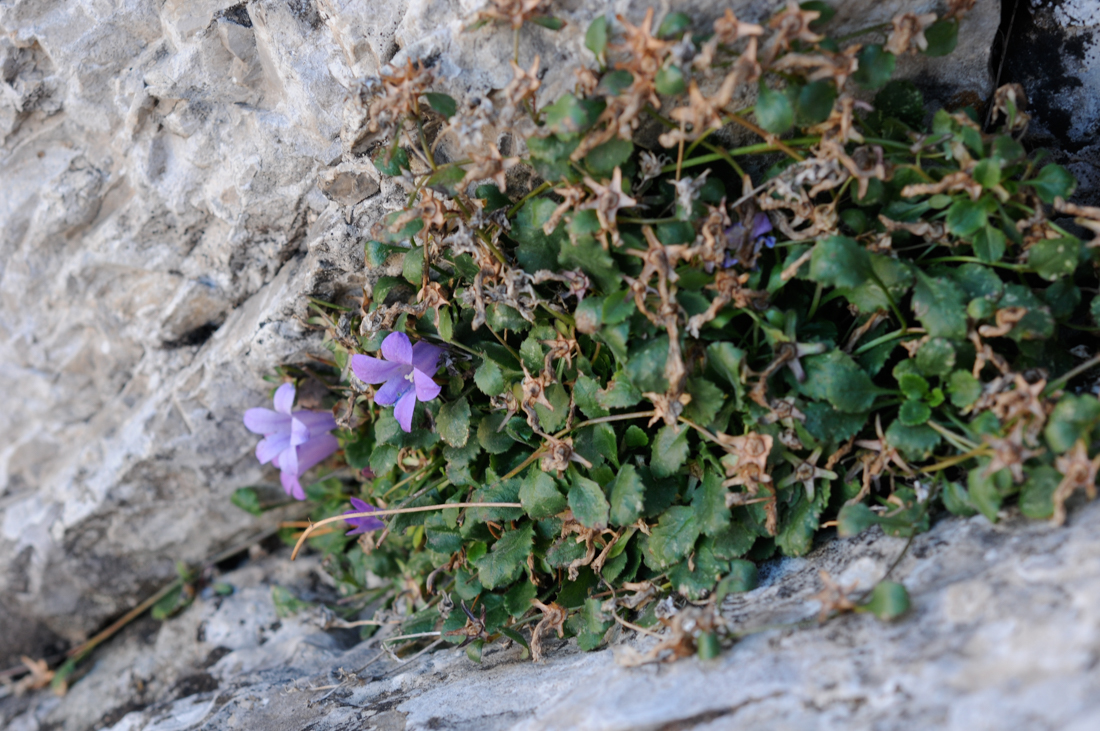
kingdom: Plantae
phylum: Tracheophyta
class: Magnoliopsida
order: Asterales
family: Campanulaceae
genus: Campanula
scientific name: Campanula rupicola
